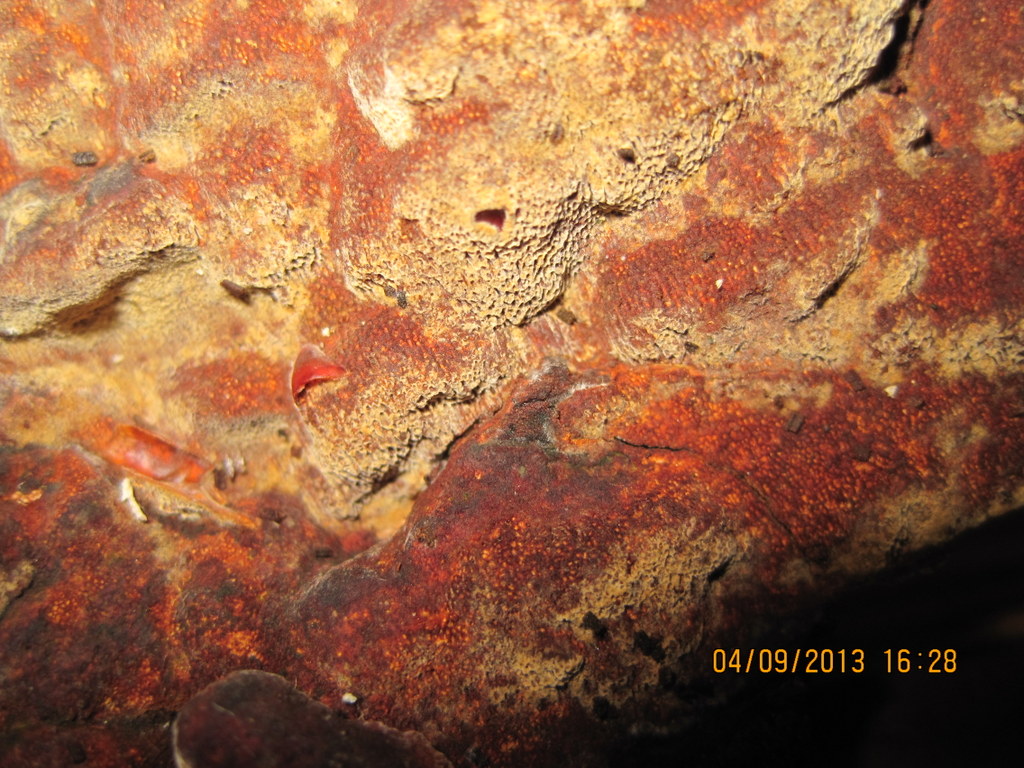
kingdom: Fungi
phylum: Basidiomycota
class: Agaricomycetes
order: Hymenochaetales
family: Hymenochaetaceae
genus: Fuscoporia
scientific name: Fuscoporia ferrea
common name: skorpe-ildporesvamp
